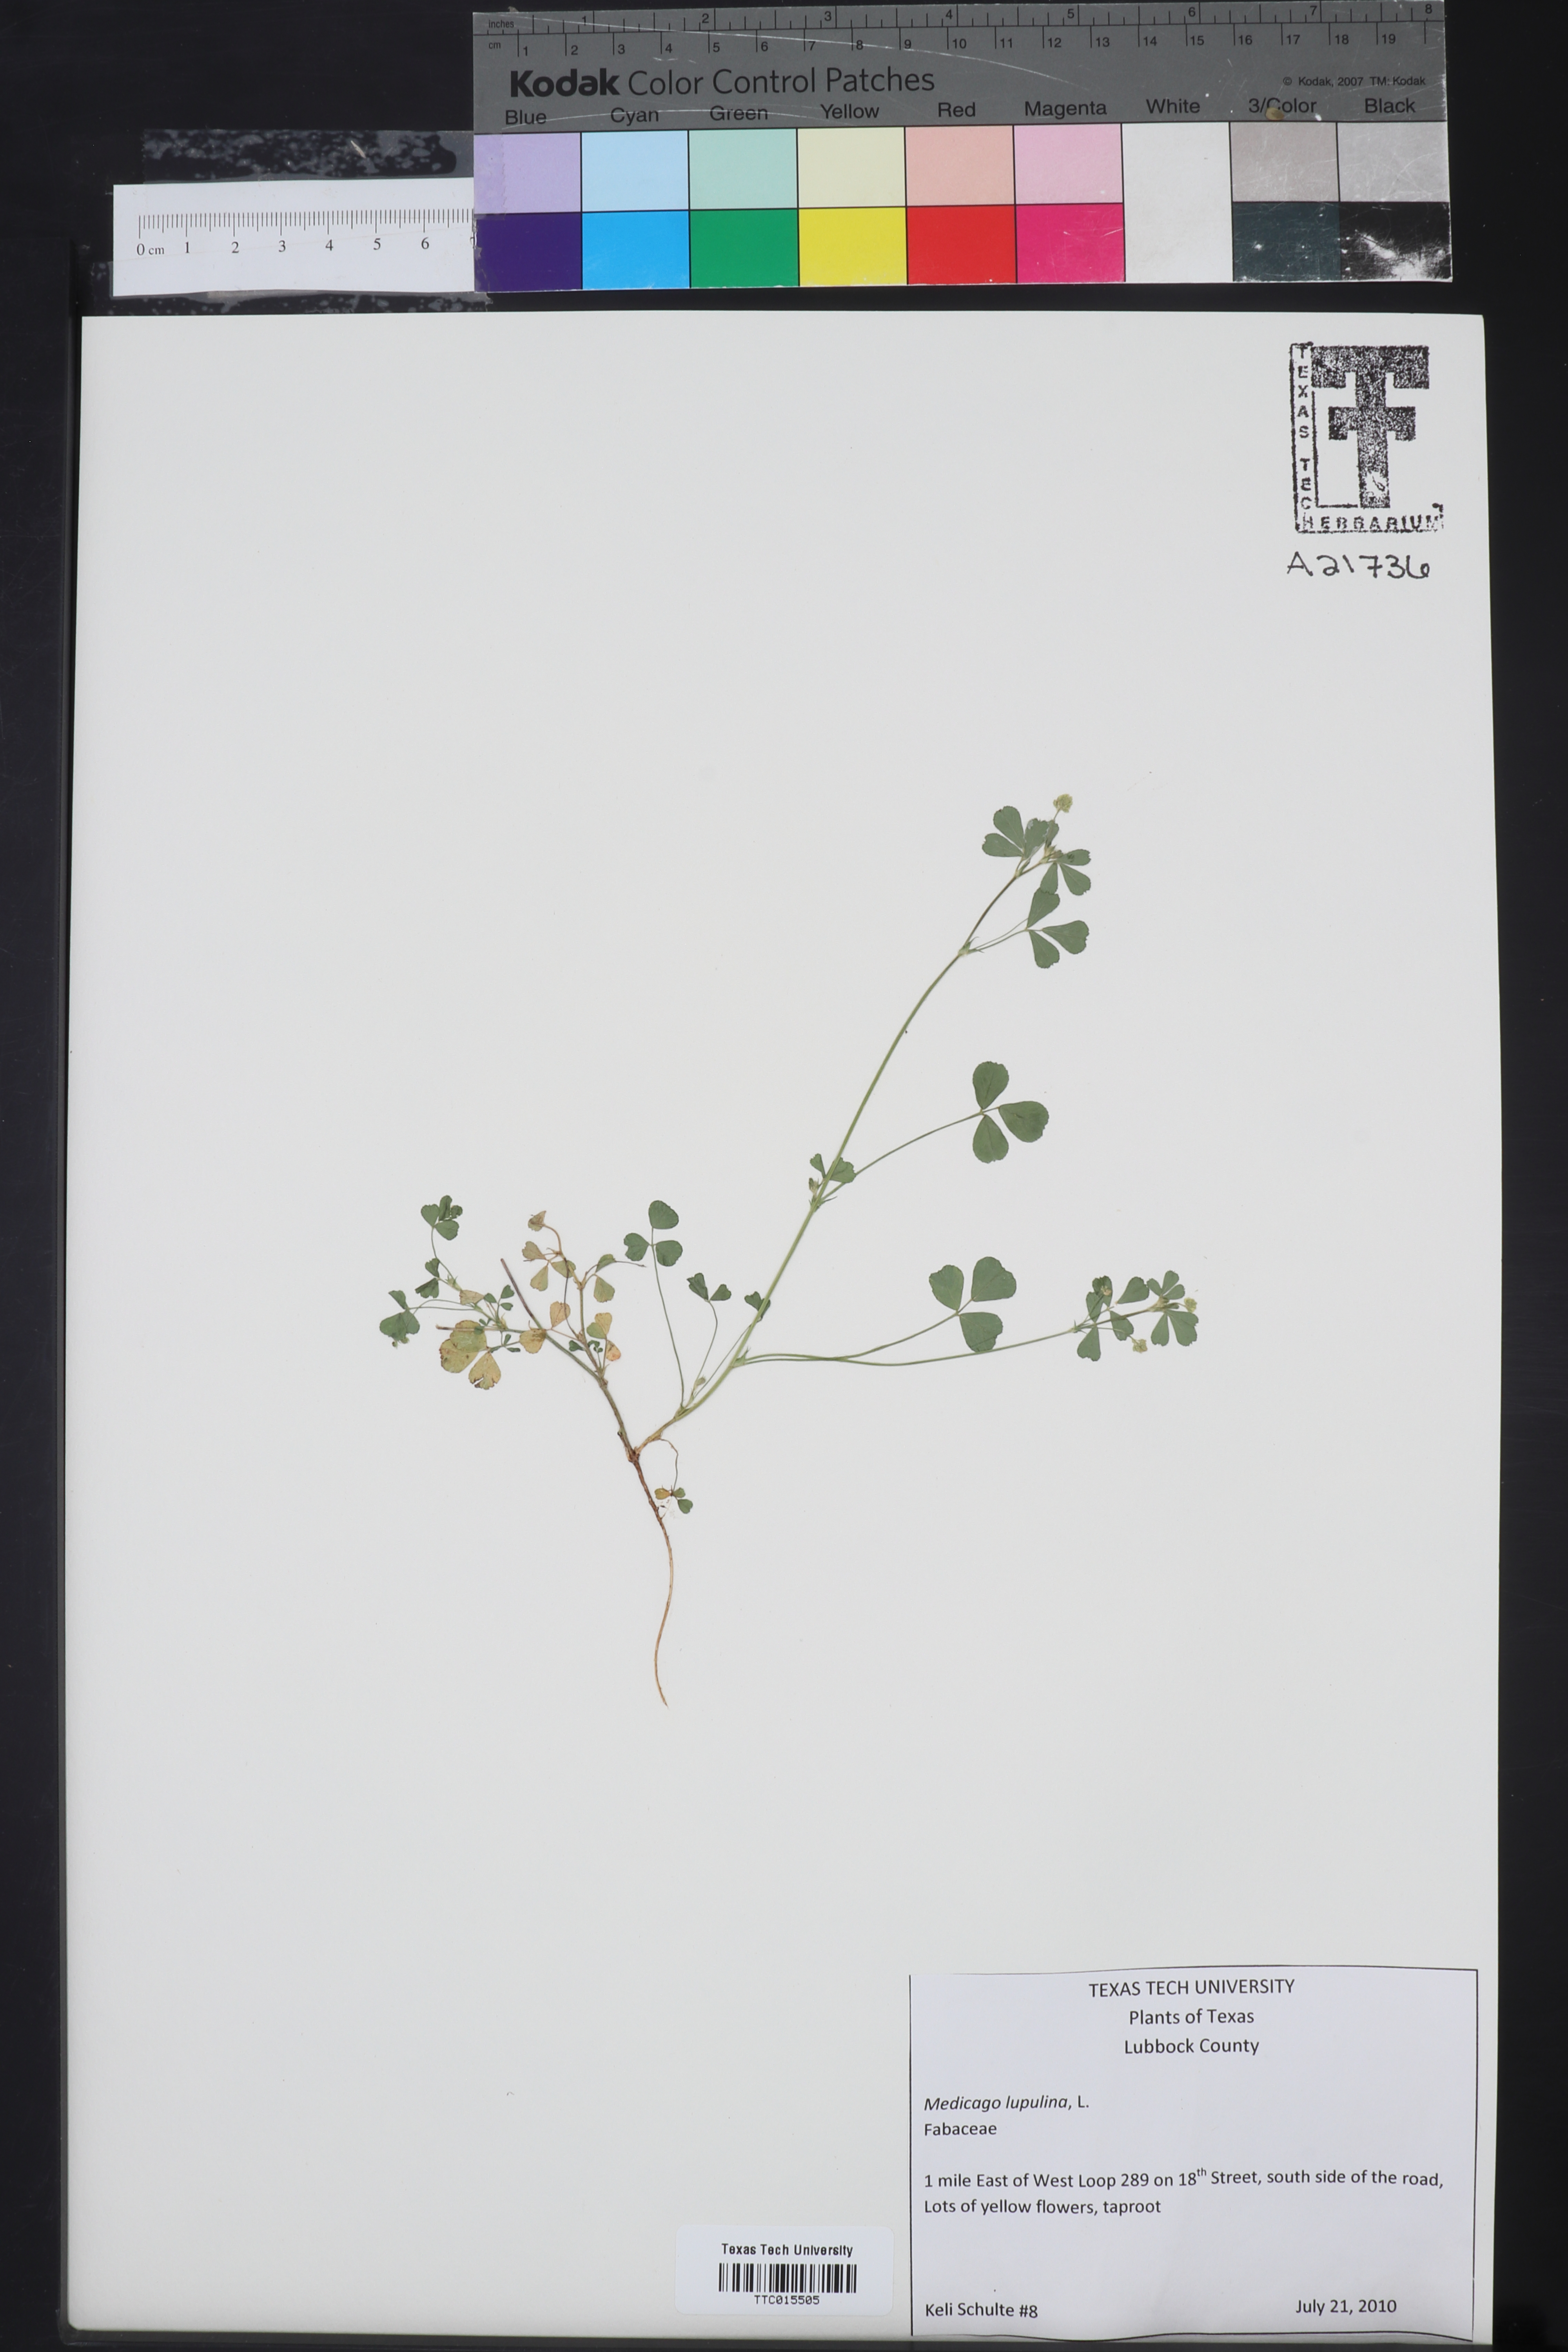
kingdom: Plantae
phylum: Tracheophyta
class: Magnoliopsida
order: Fabales
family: Fabaceae
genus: Medicago
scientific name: Medicago lupulina
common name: Black medick
